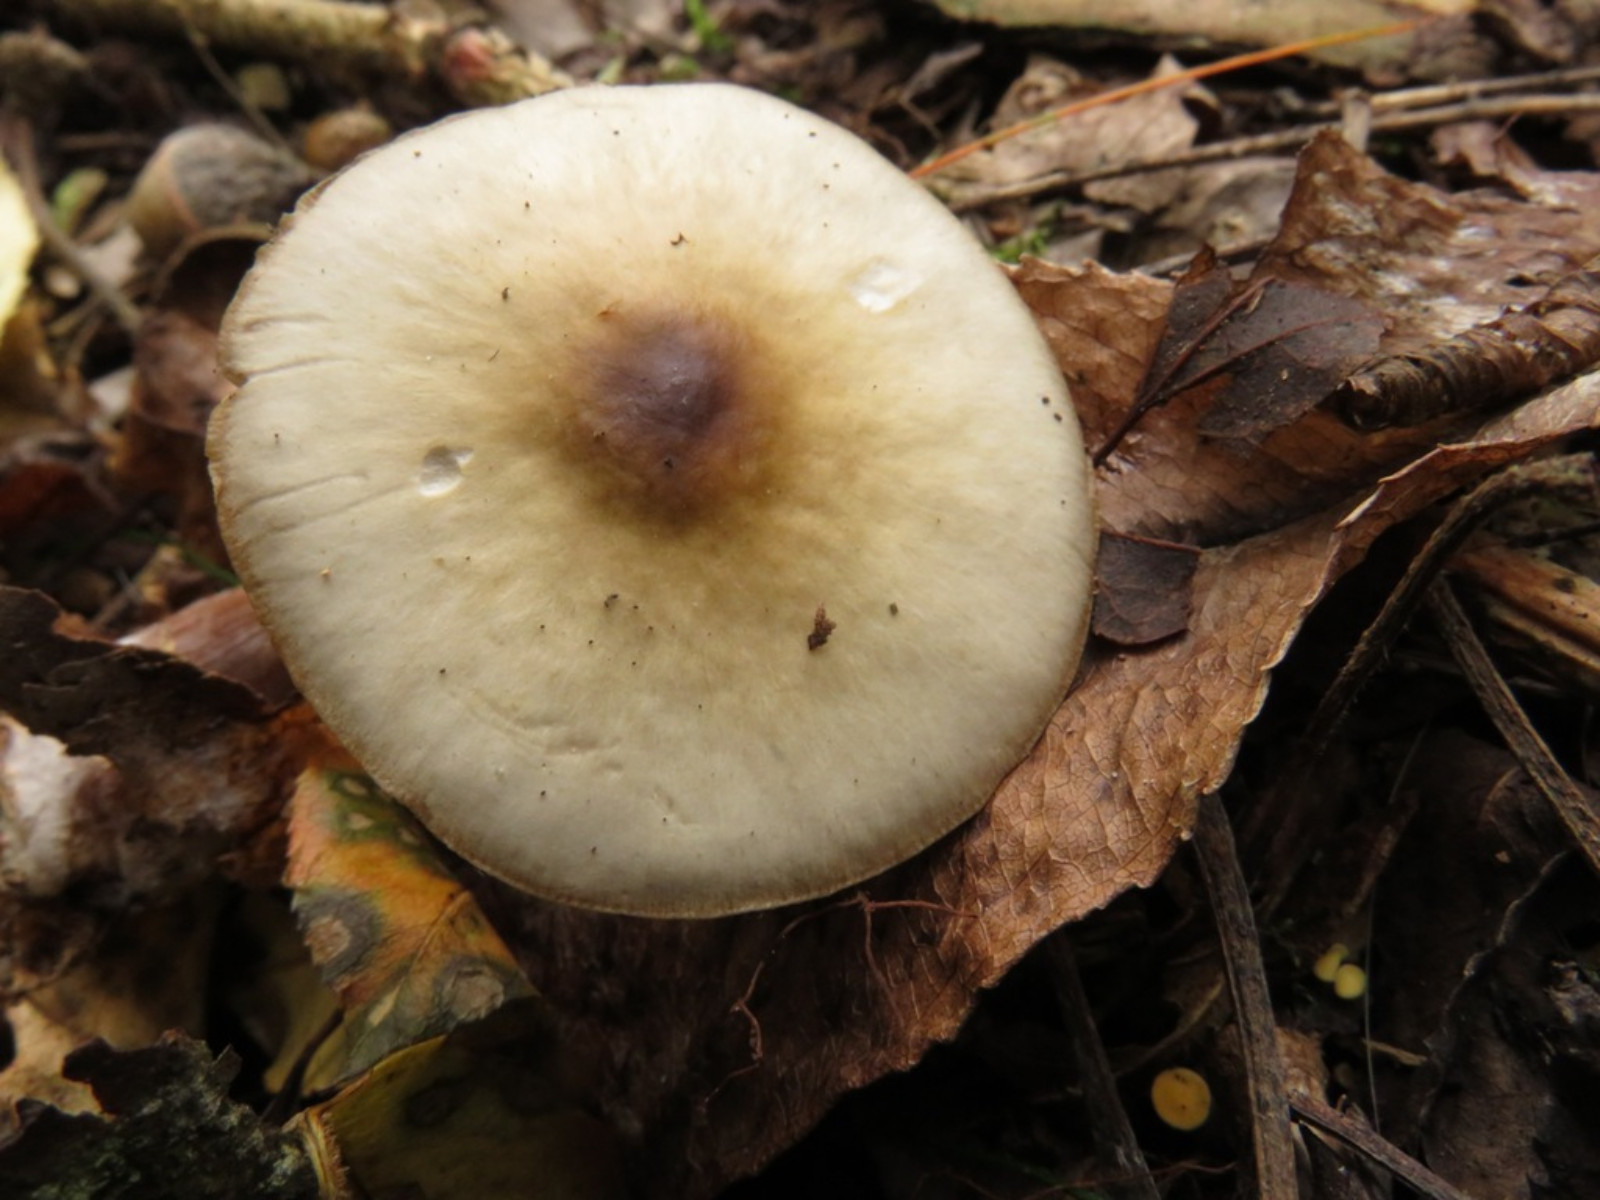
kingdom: Fungi
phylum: Basidiomycota
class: Agaricomycetes
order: Agaricales
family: Omphalotaceae
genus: Rhodocollybia
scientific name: Rhodocollybia asema
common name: horngrå fladhat
